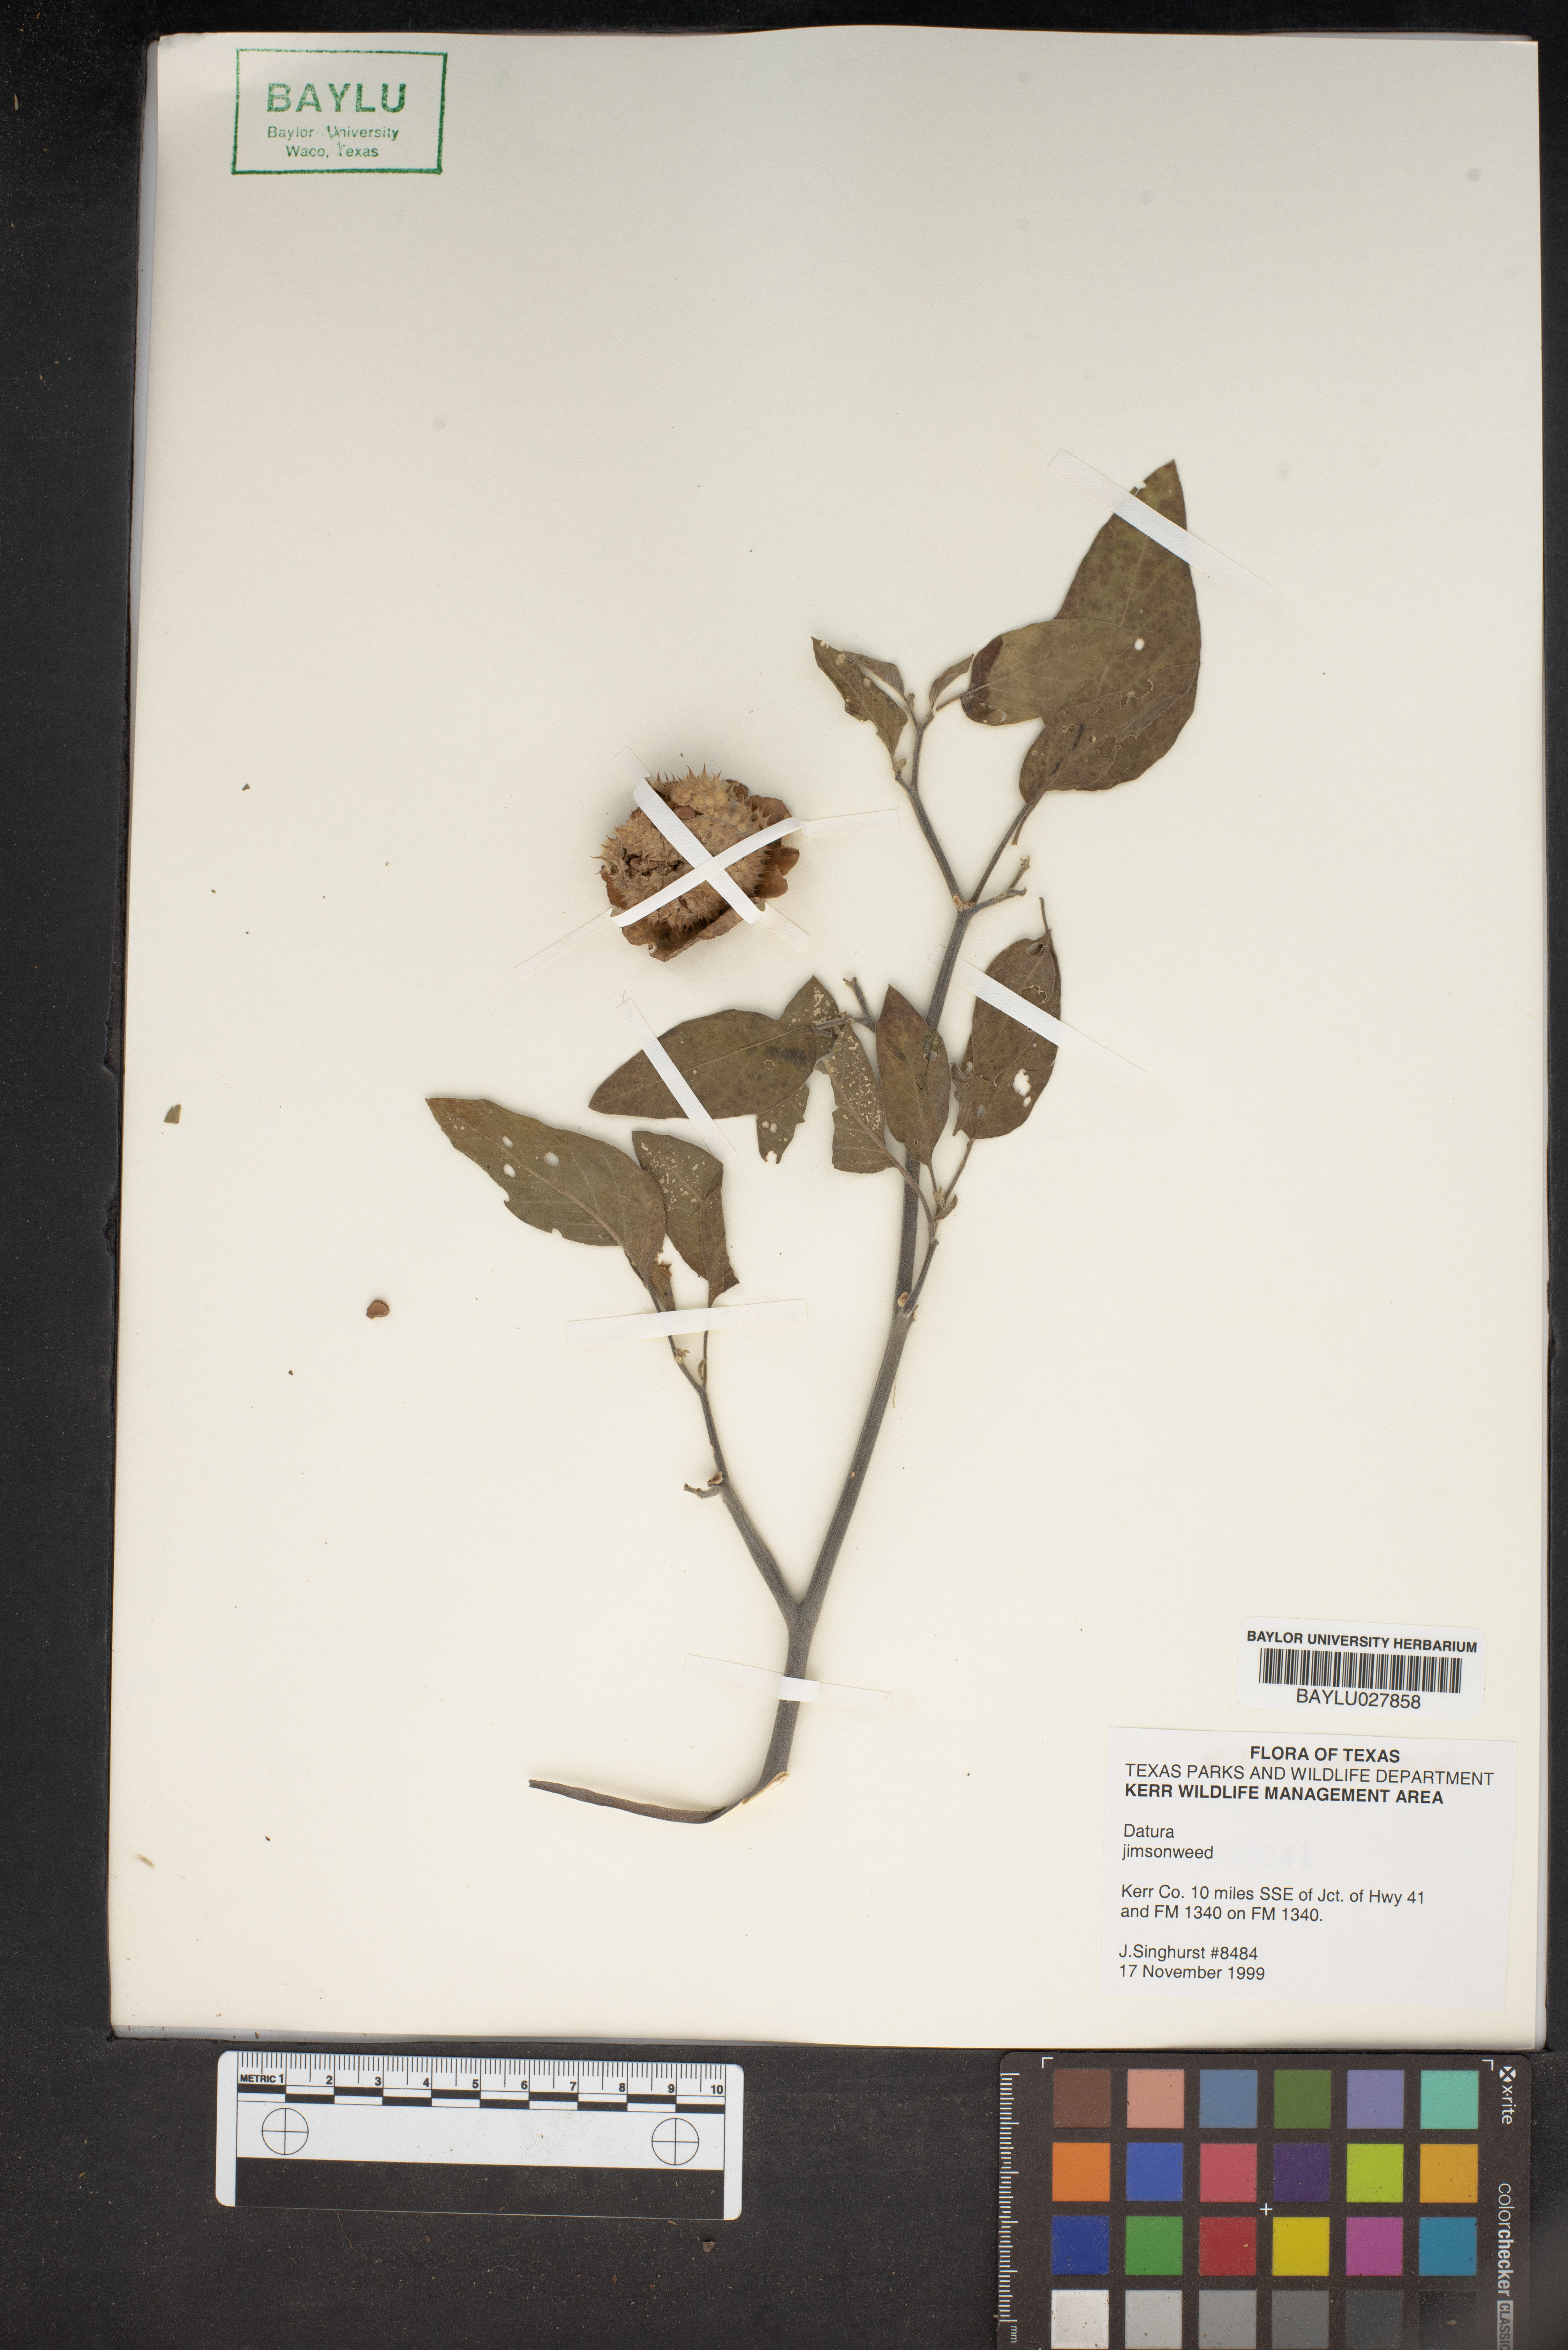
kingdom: Plantae
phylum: Tracheophyta
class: Magnoliopsida
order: Solanales
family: Solanaceae
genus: Datura
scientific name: Datura
